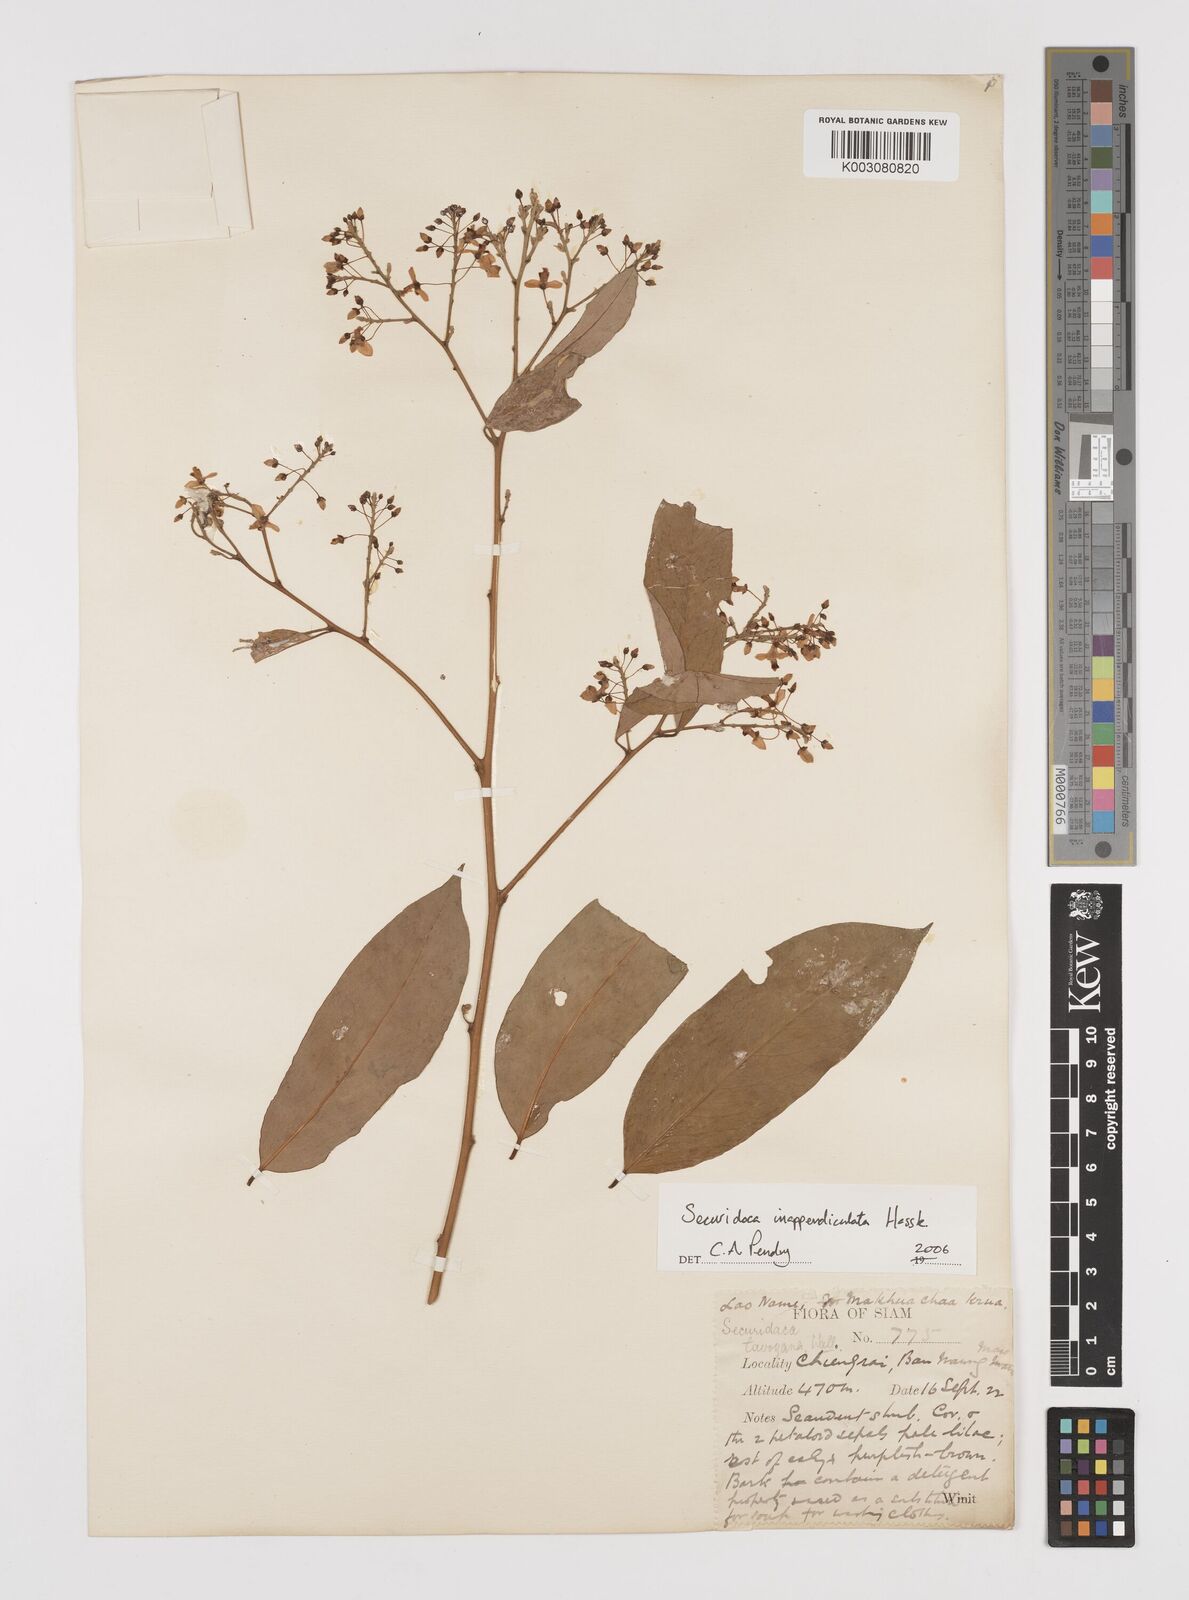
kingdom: Plantae
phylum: Tracheophyta
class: Magnoliopsida
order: Fabales
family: Polygalaceae
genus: Securidaca
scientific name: Securidaca inappendiculata
